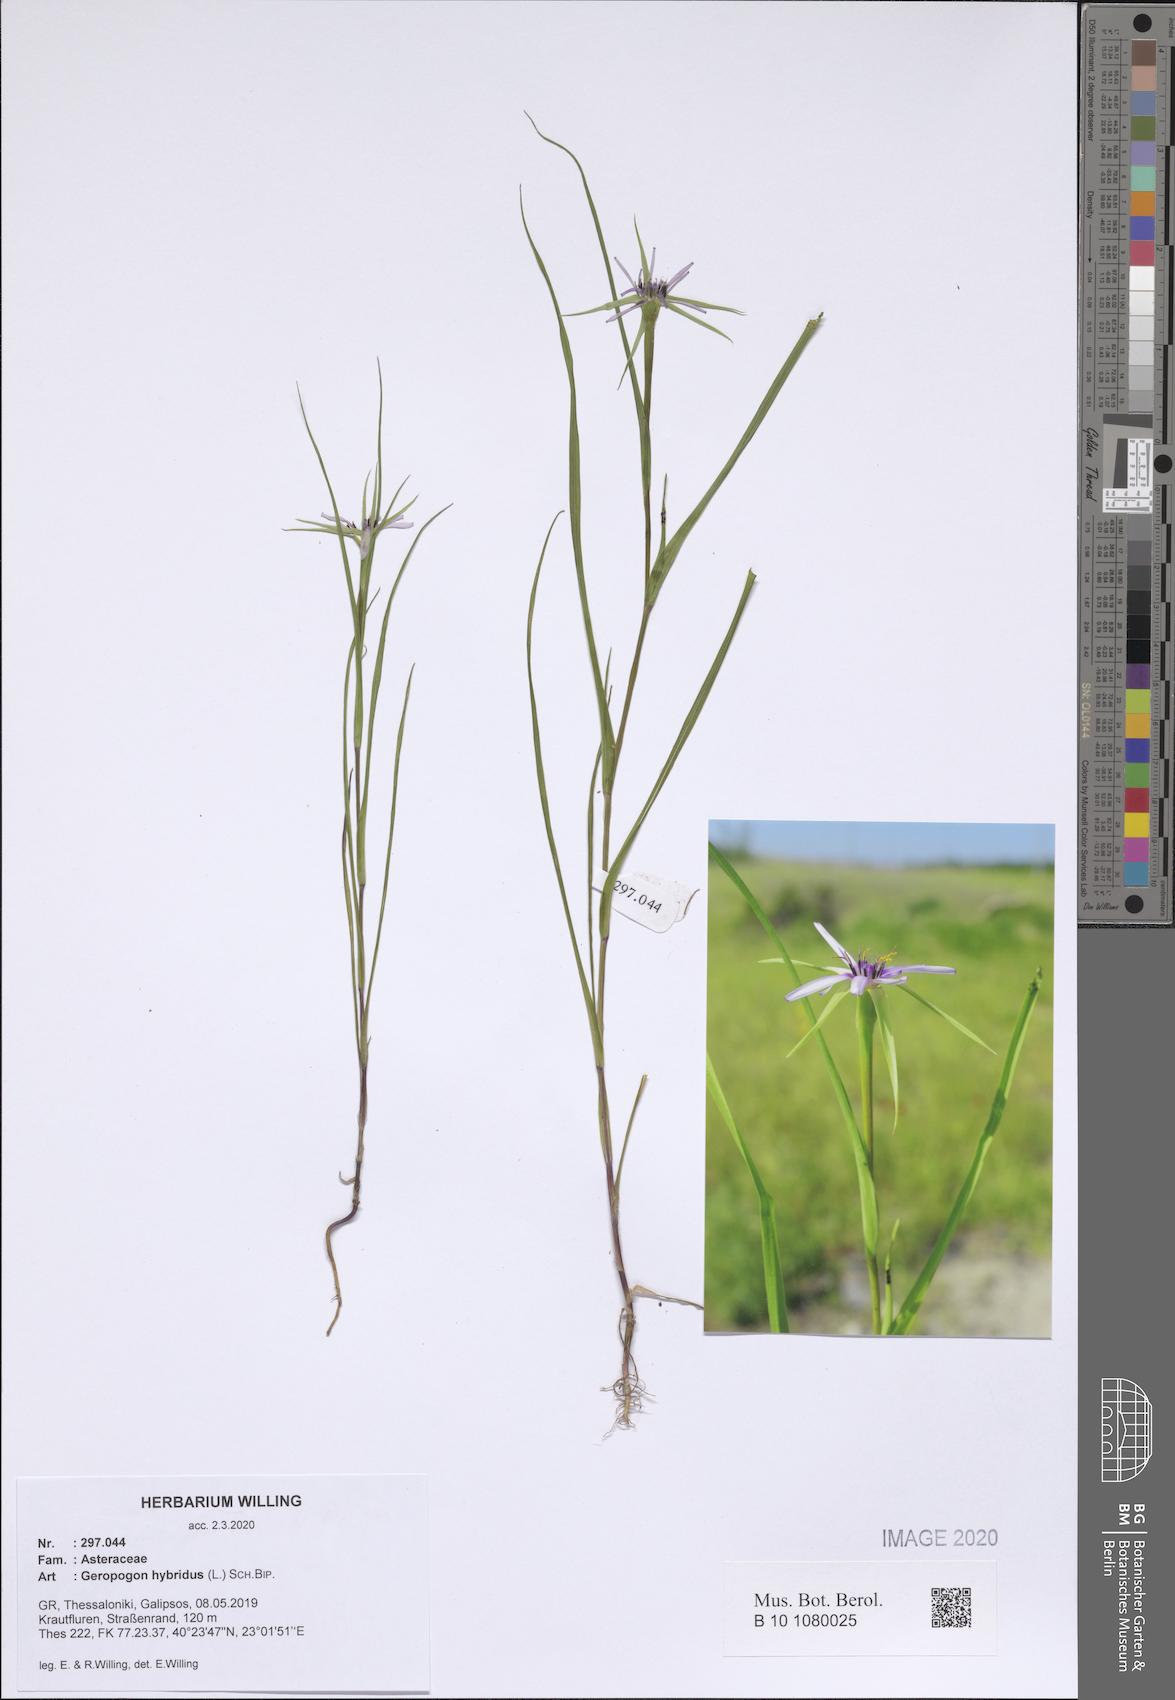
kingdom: Plantae
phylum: Tracheophyta
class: Magnoliopsida
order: Asterales
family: Asteraceae
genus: Geropogon
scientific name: Geropogon hybridus
